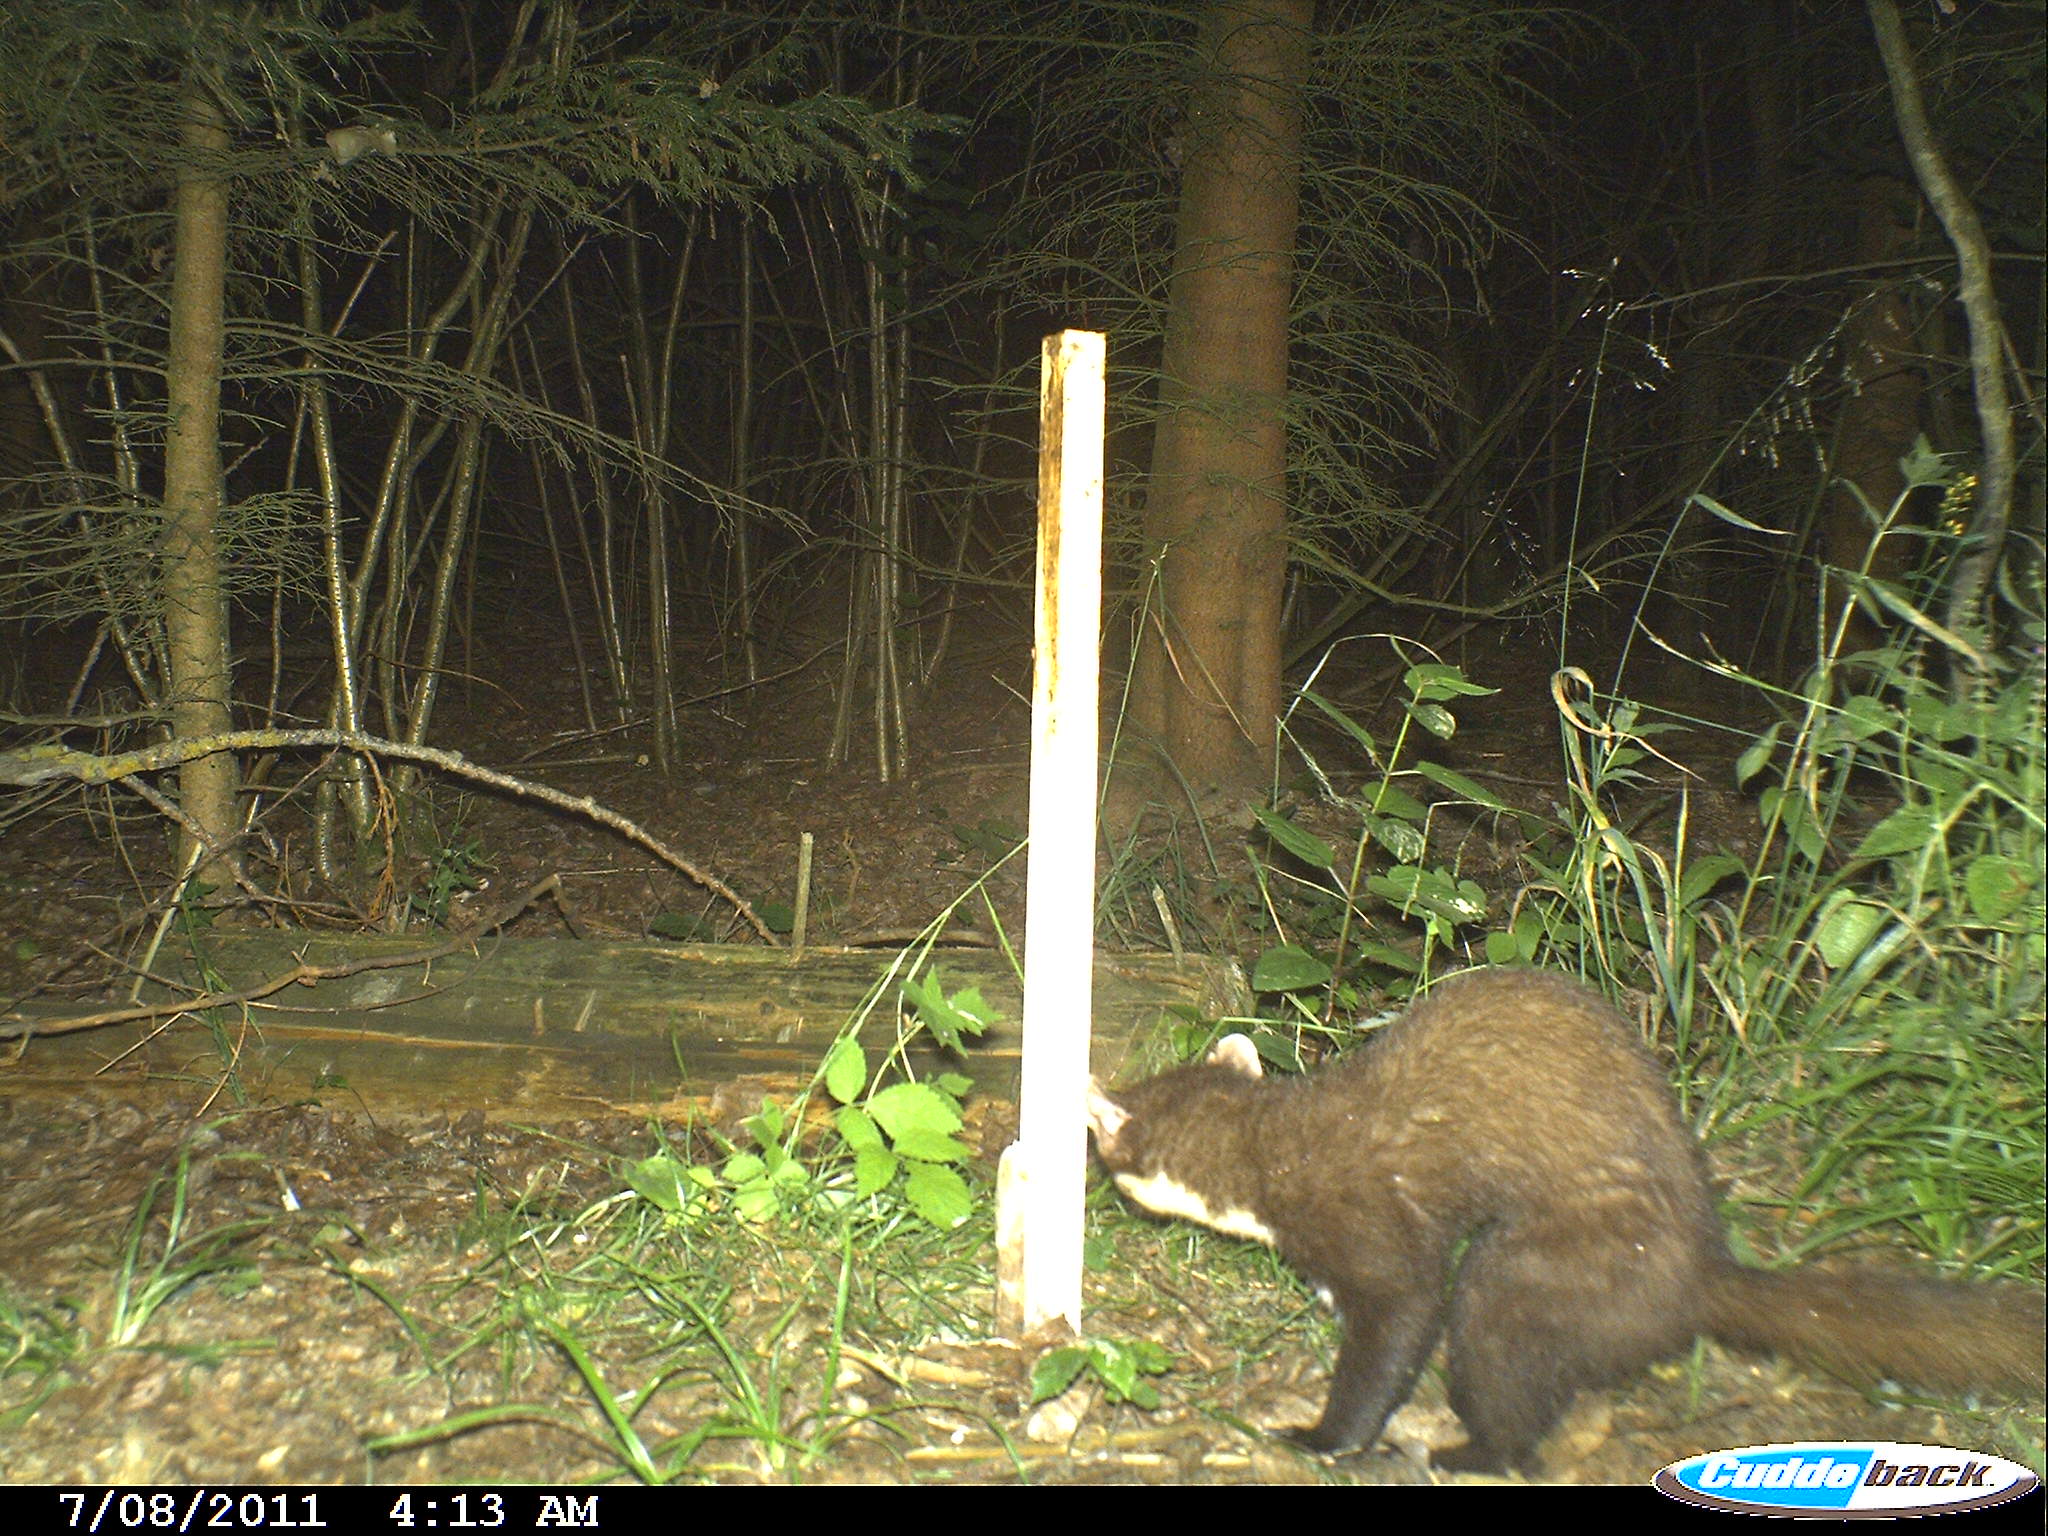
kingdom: Animalia
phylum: Chordata
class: Mammalia
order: Carnivora
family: Mustelidae
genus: Martes
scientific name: Martes martes
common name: European pine marten
